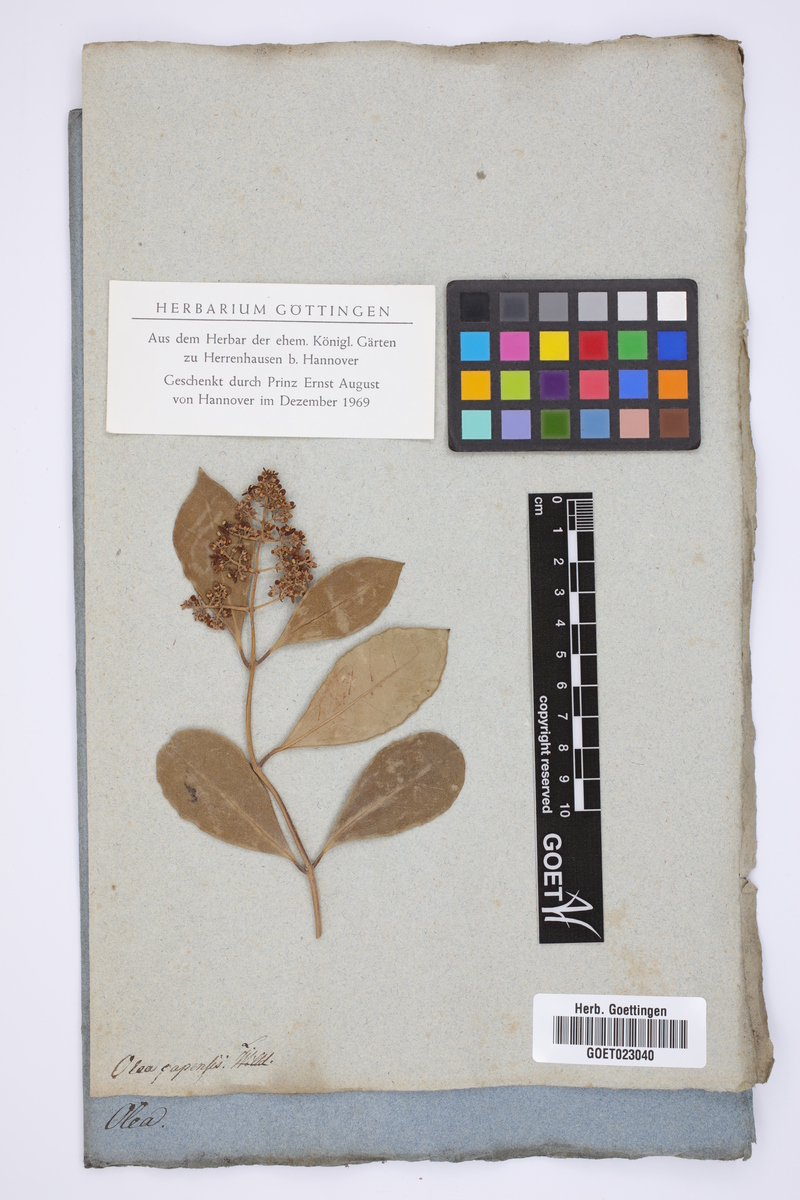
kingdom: Plantae
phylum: Tracheophyta
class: Magnoliopsida
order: Lamiales
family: Oleaceae
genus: Olea
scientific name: Olea capensis
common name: Black ironwood
